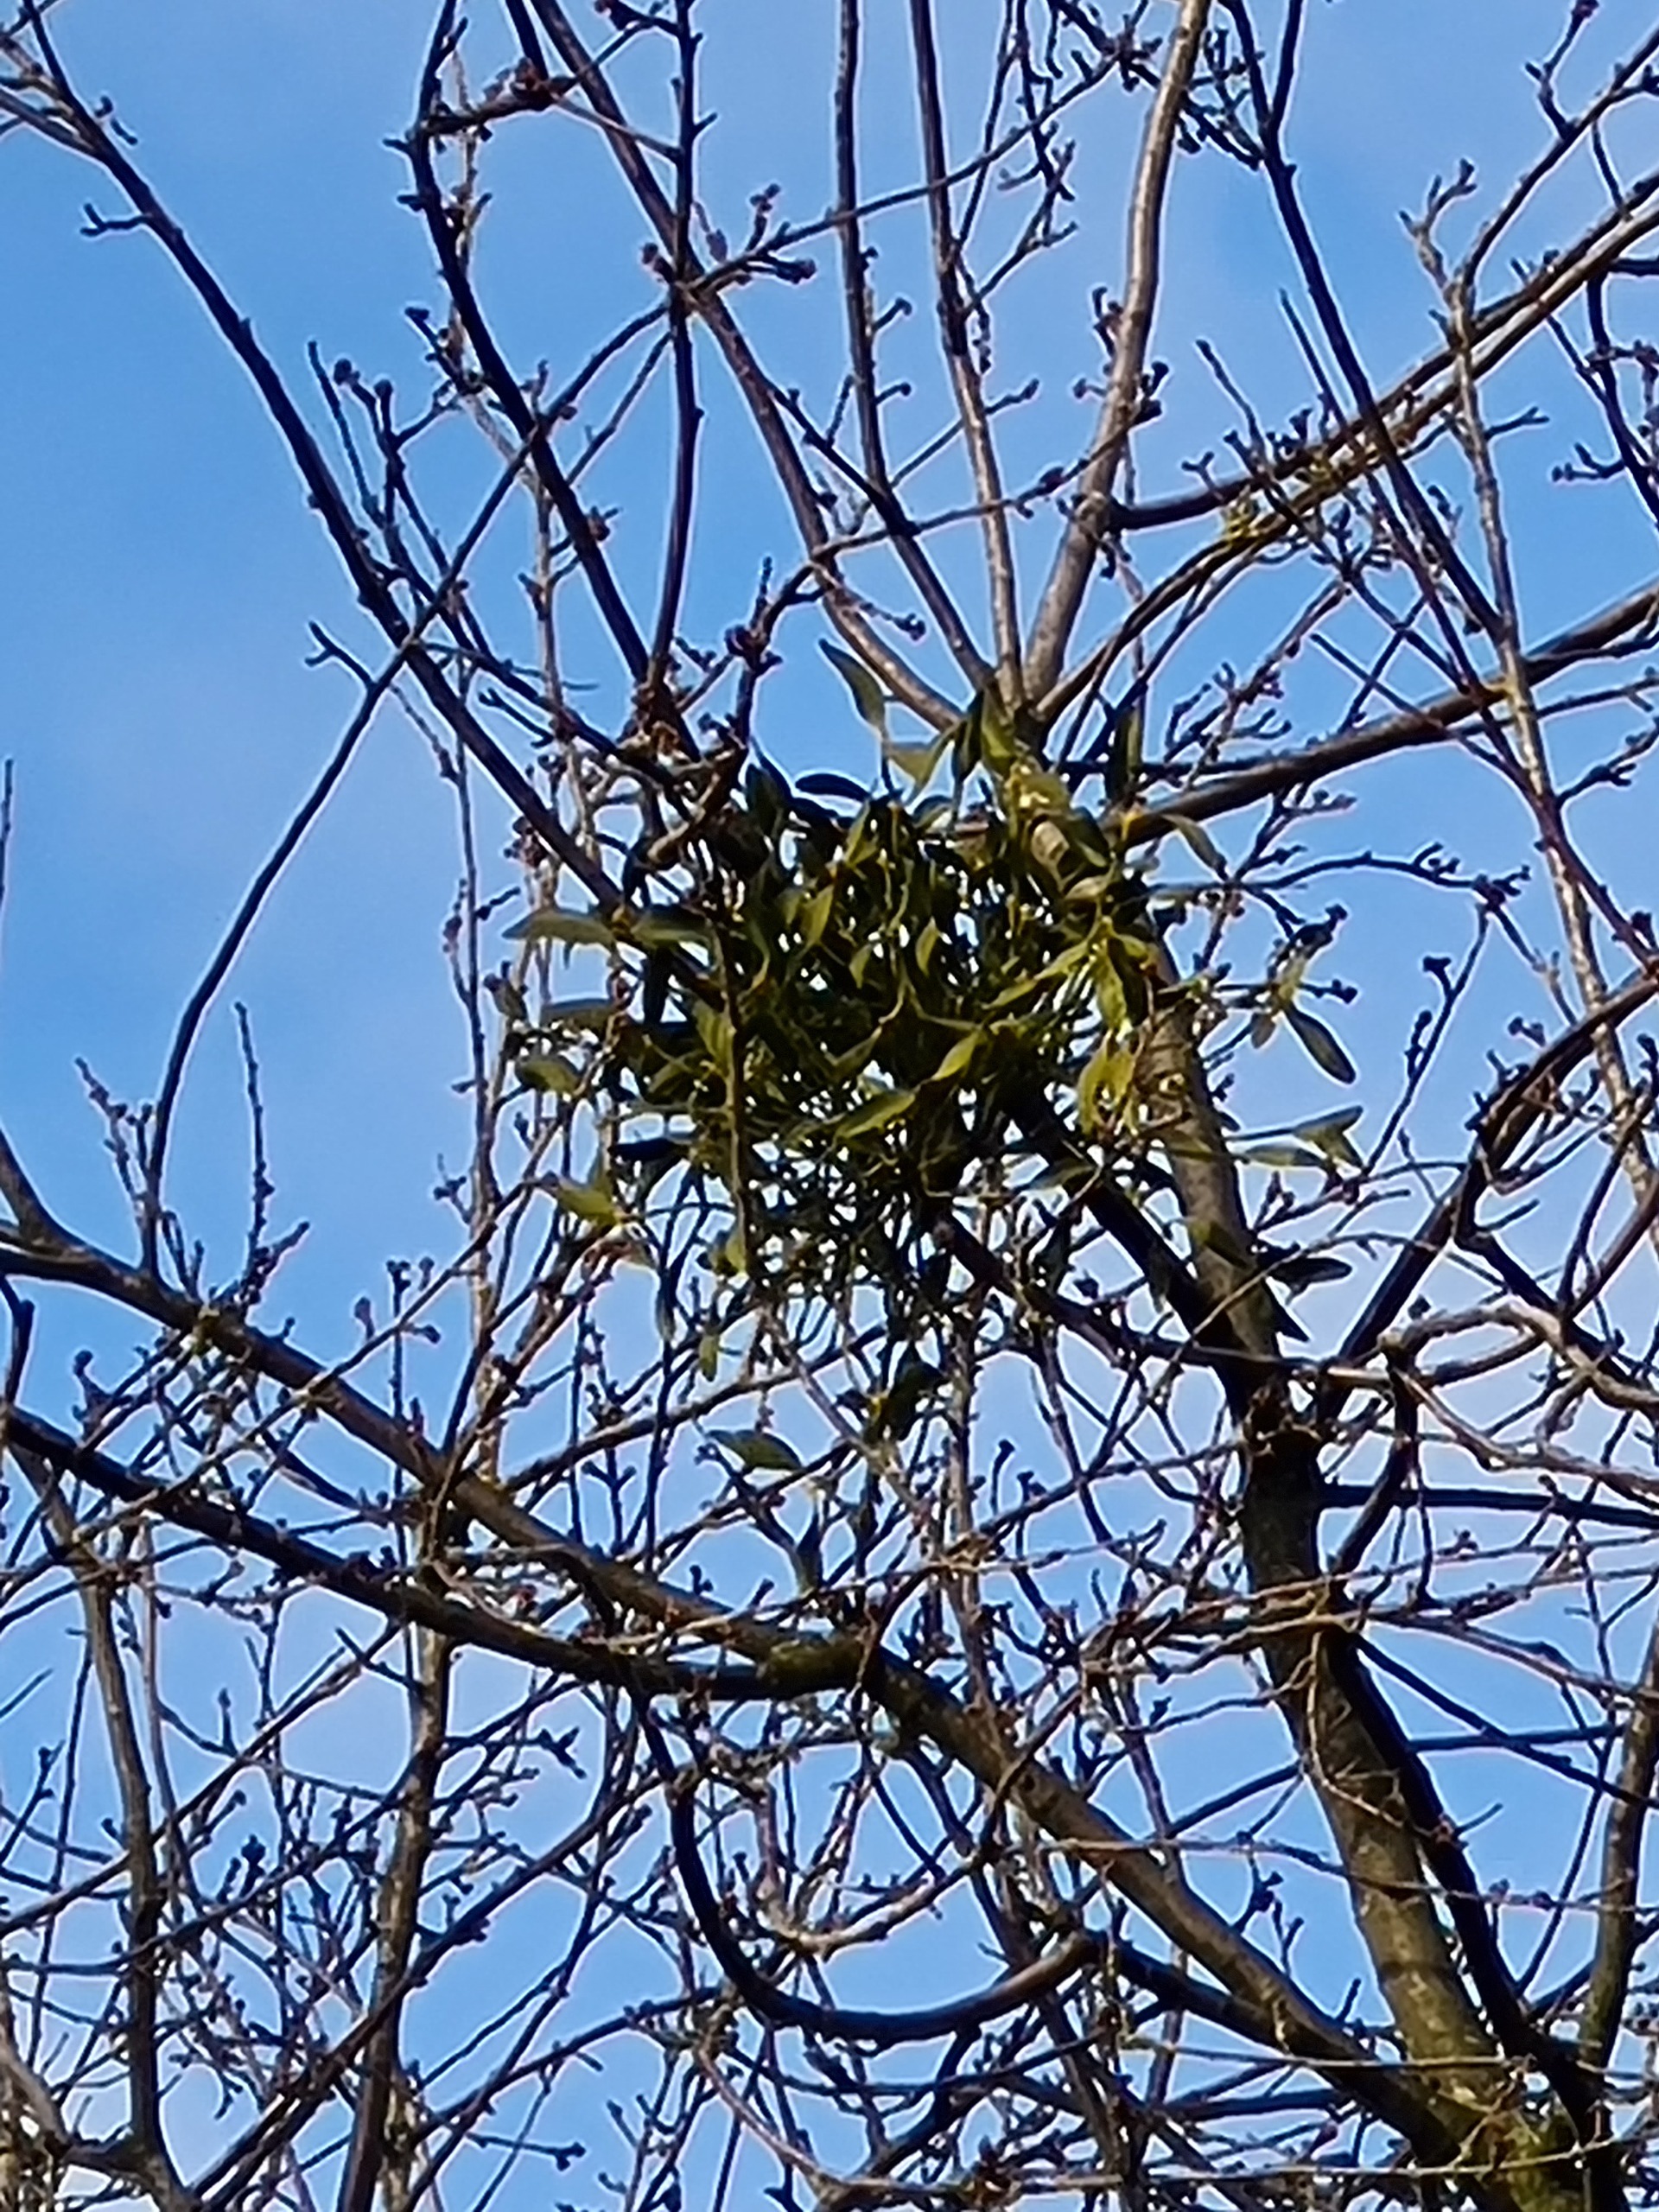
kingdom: Plantae
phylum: Tracheophyta
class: Magnoliopsida
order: Santalales
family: Viscaceae
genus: Viscum
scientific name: Viscum album
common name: Mistelten
